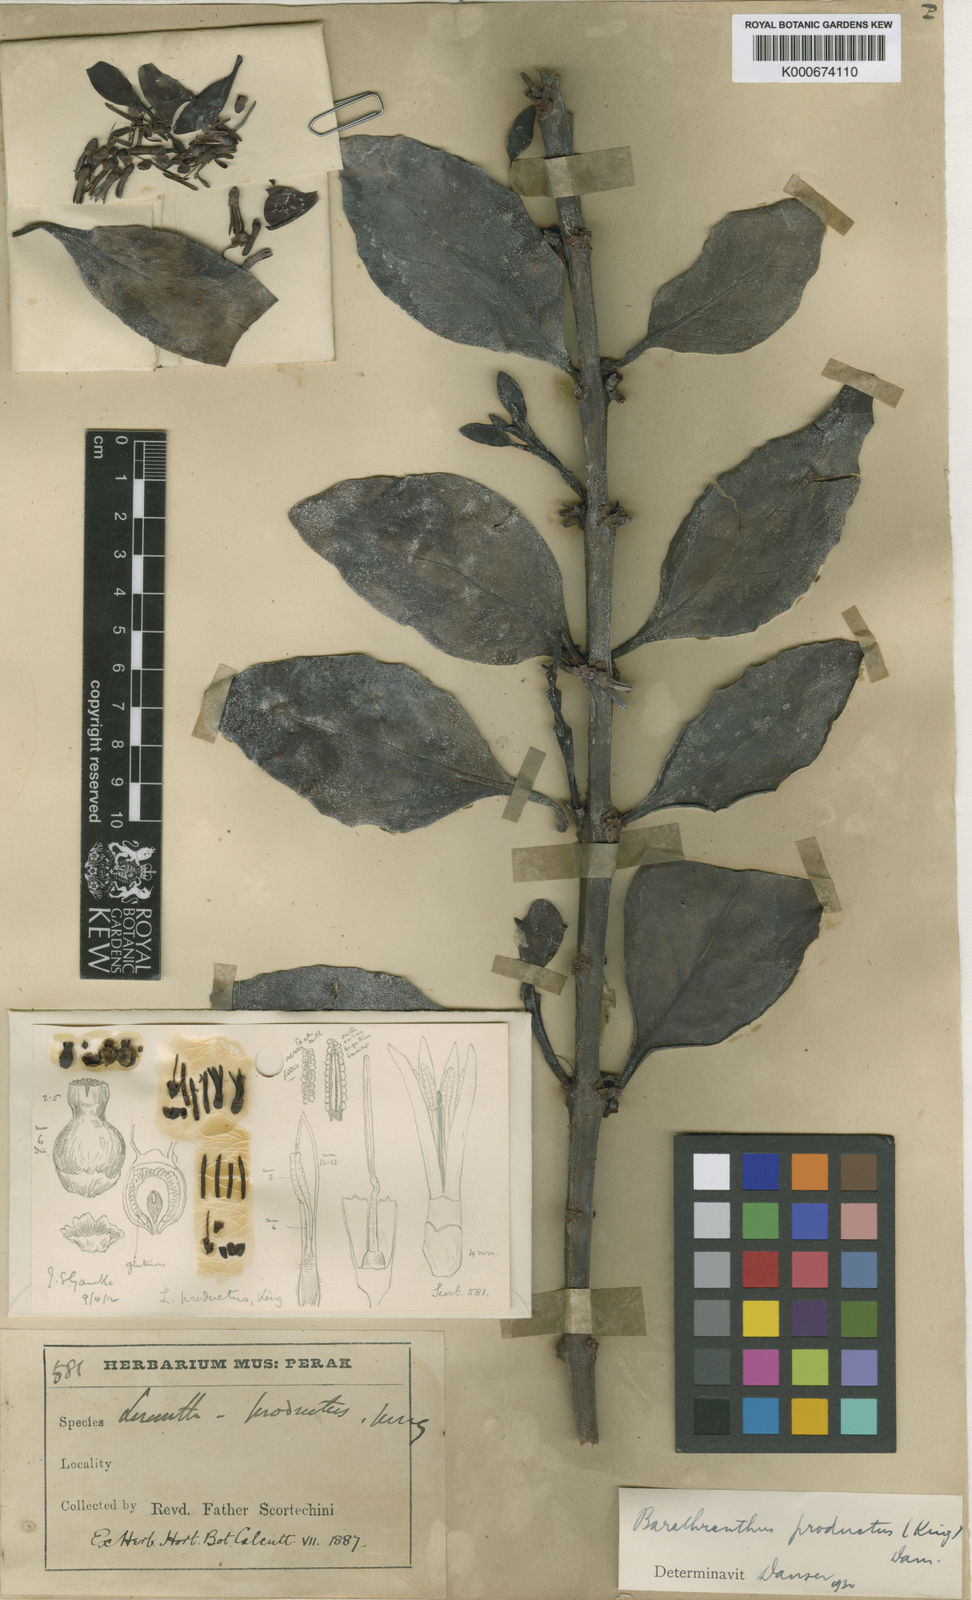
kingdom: Plantae
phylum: Tracheophyta
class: Magnoliopsida
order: Santalales
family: Loranthaceae
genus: Barathranthus
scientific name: Barathranthus
